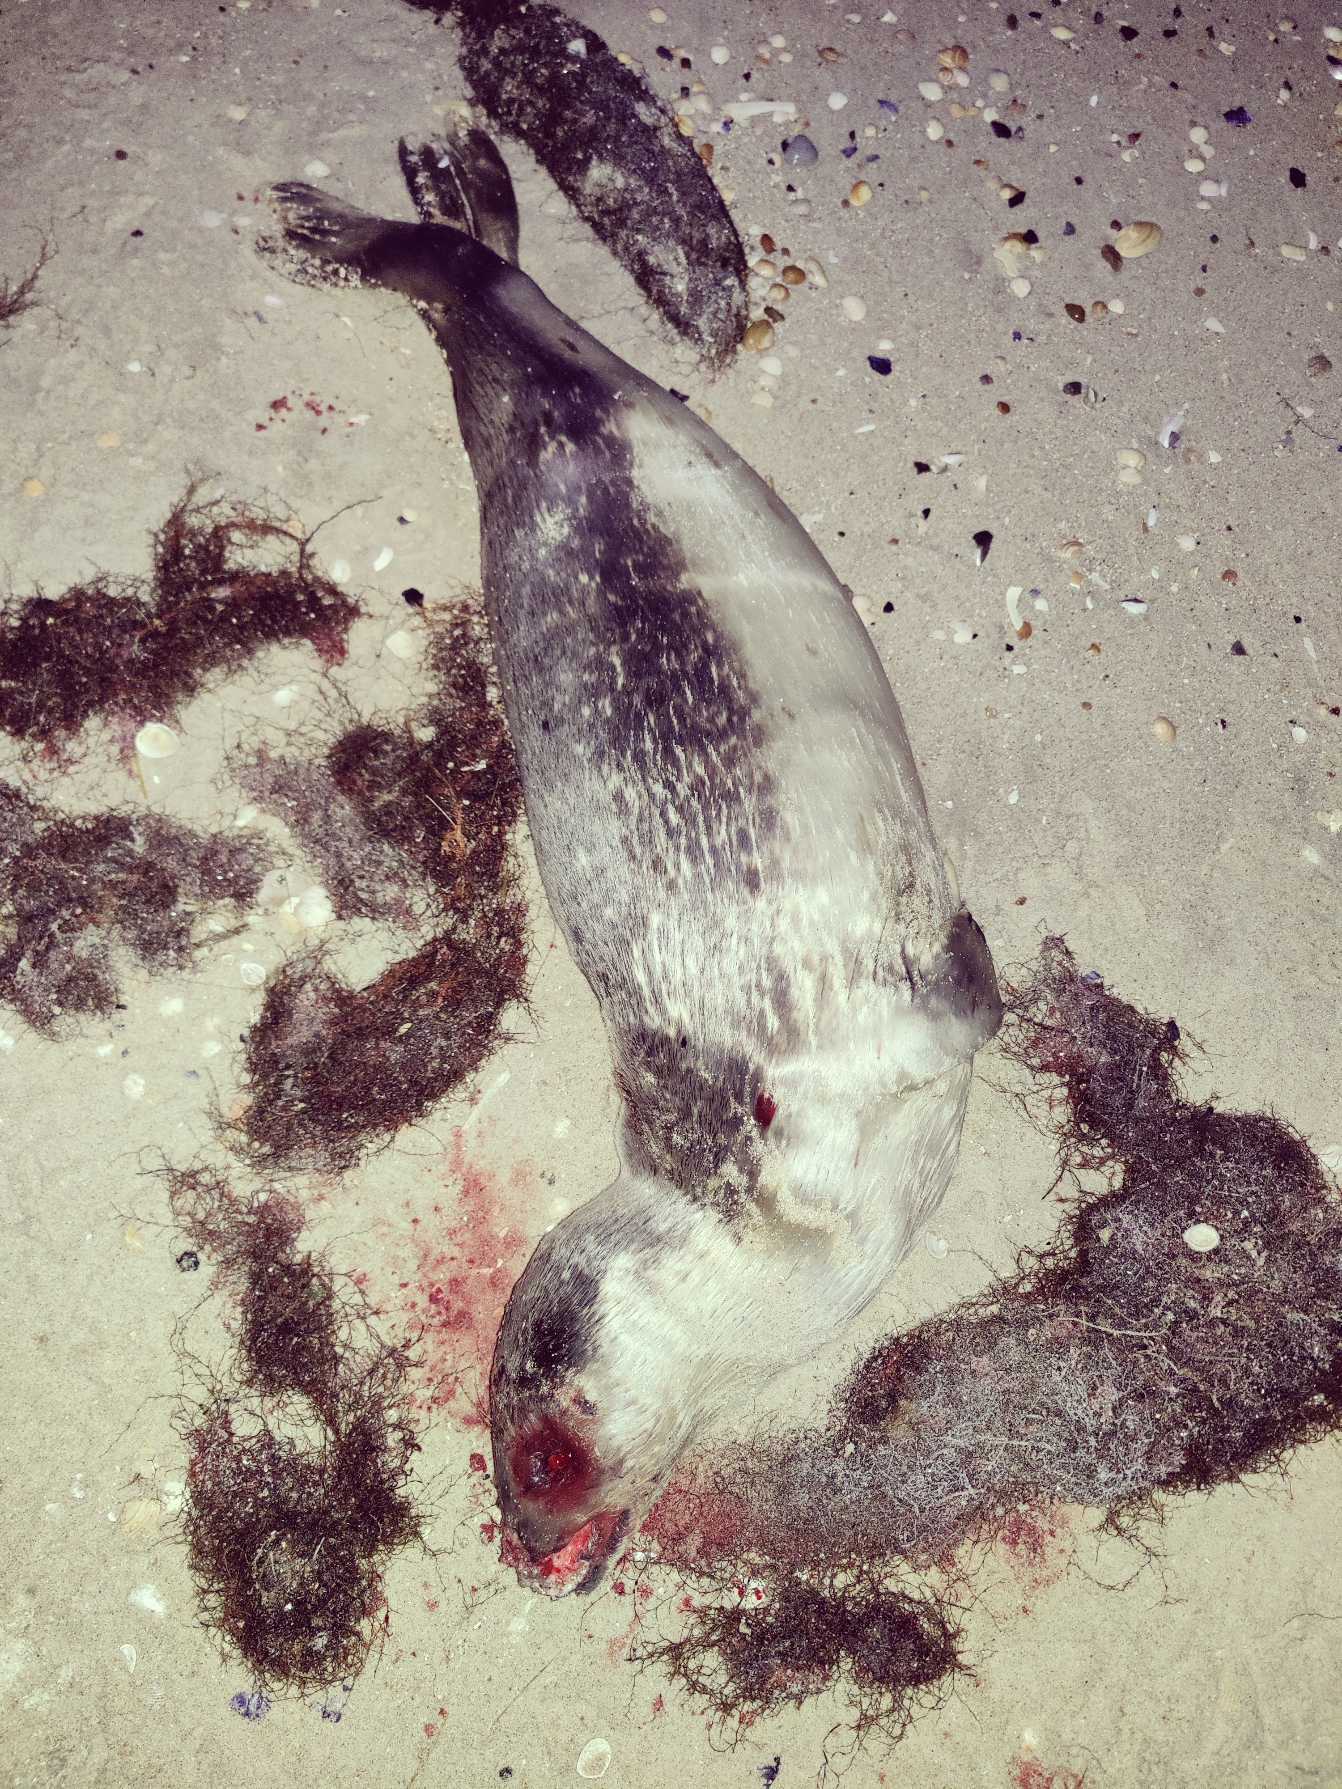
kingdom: Animalia
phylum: Chordata
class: Mammalia
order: Carnivora
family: Phocidae
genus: Phoca
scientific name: Phoca vitulina
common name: Spættet sæl
